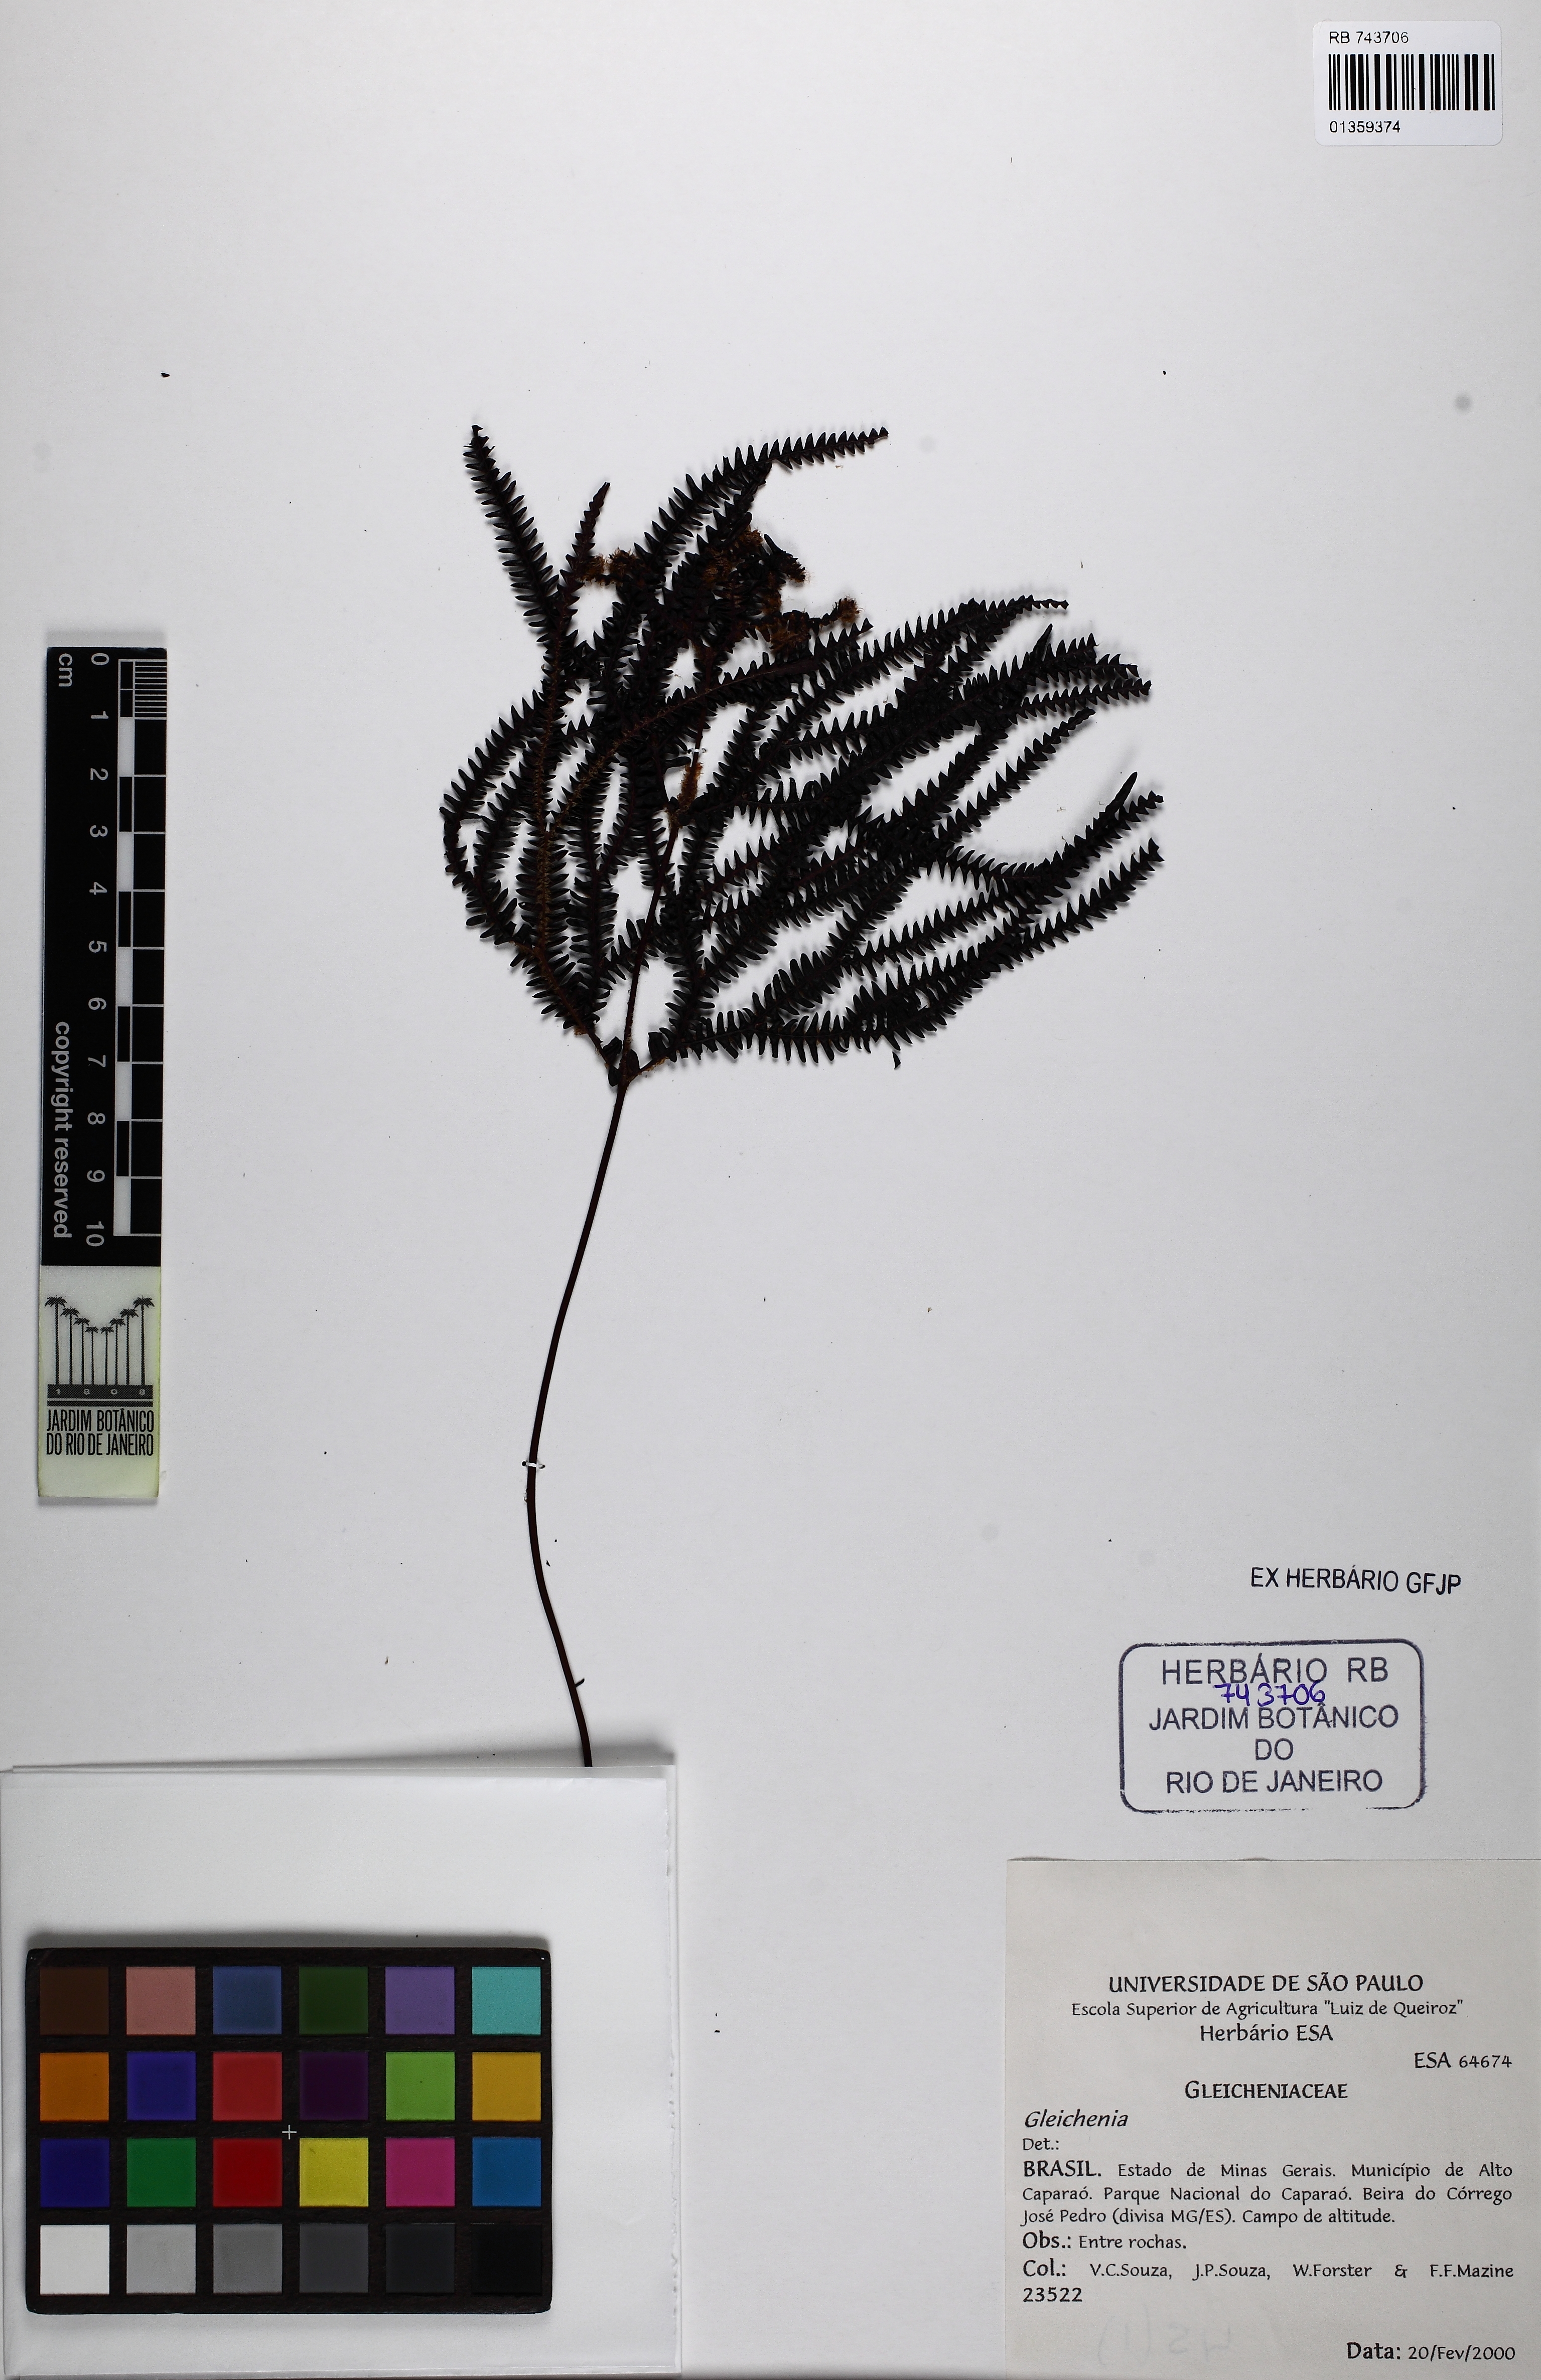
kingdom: Plantae
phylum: Tracheophyta
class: Polypodiopsida
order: Gleicheniales
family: Gleicheniaceae
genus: Sticherus
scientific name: Sticherus pruinosus
